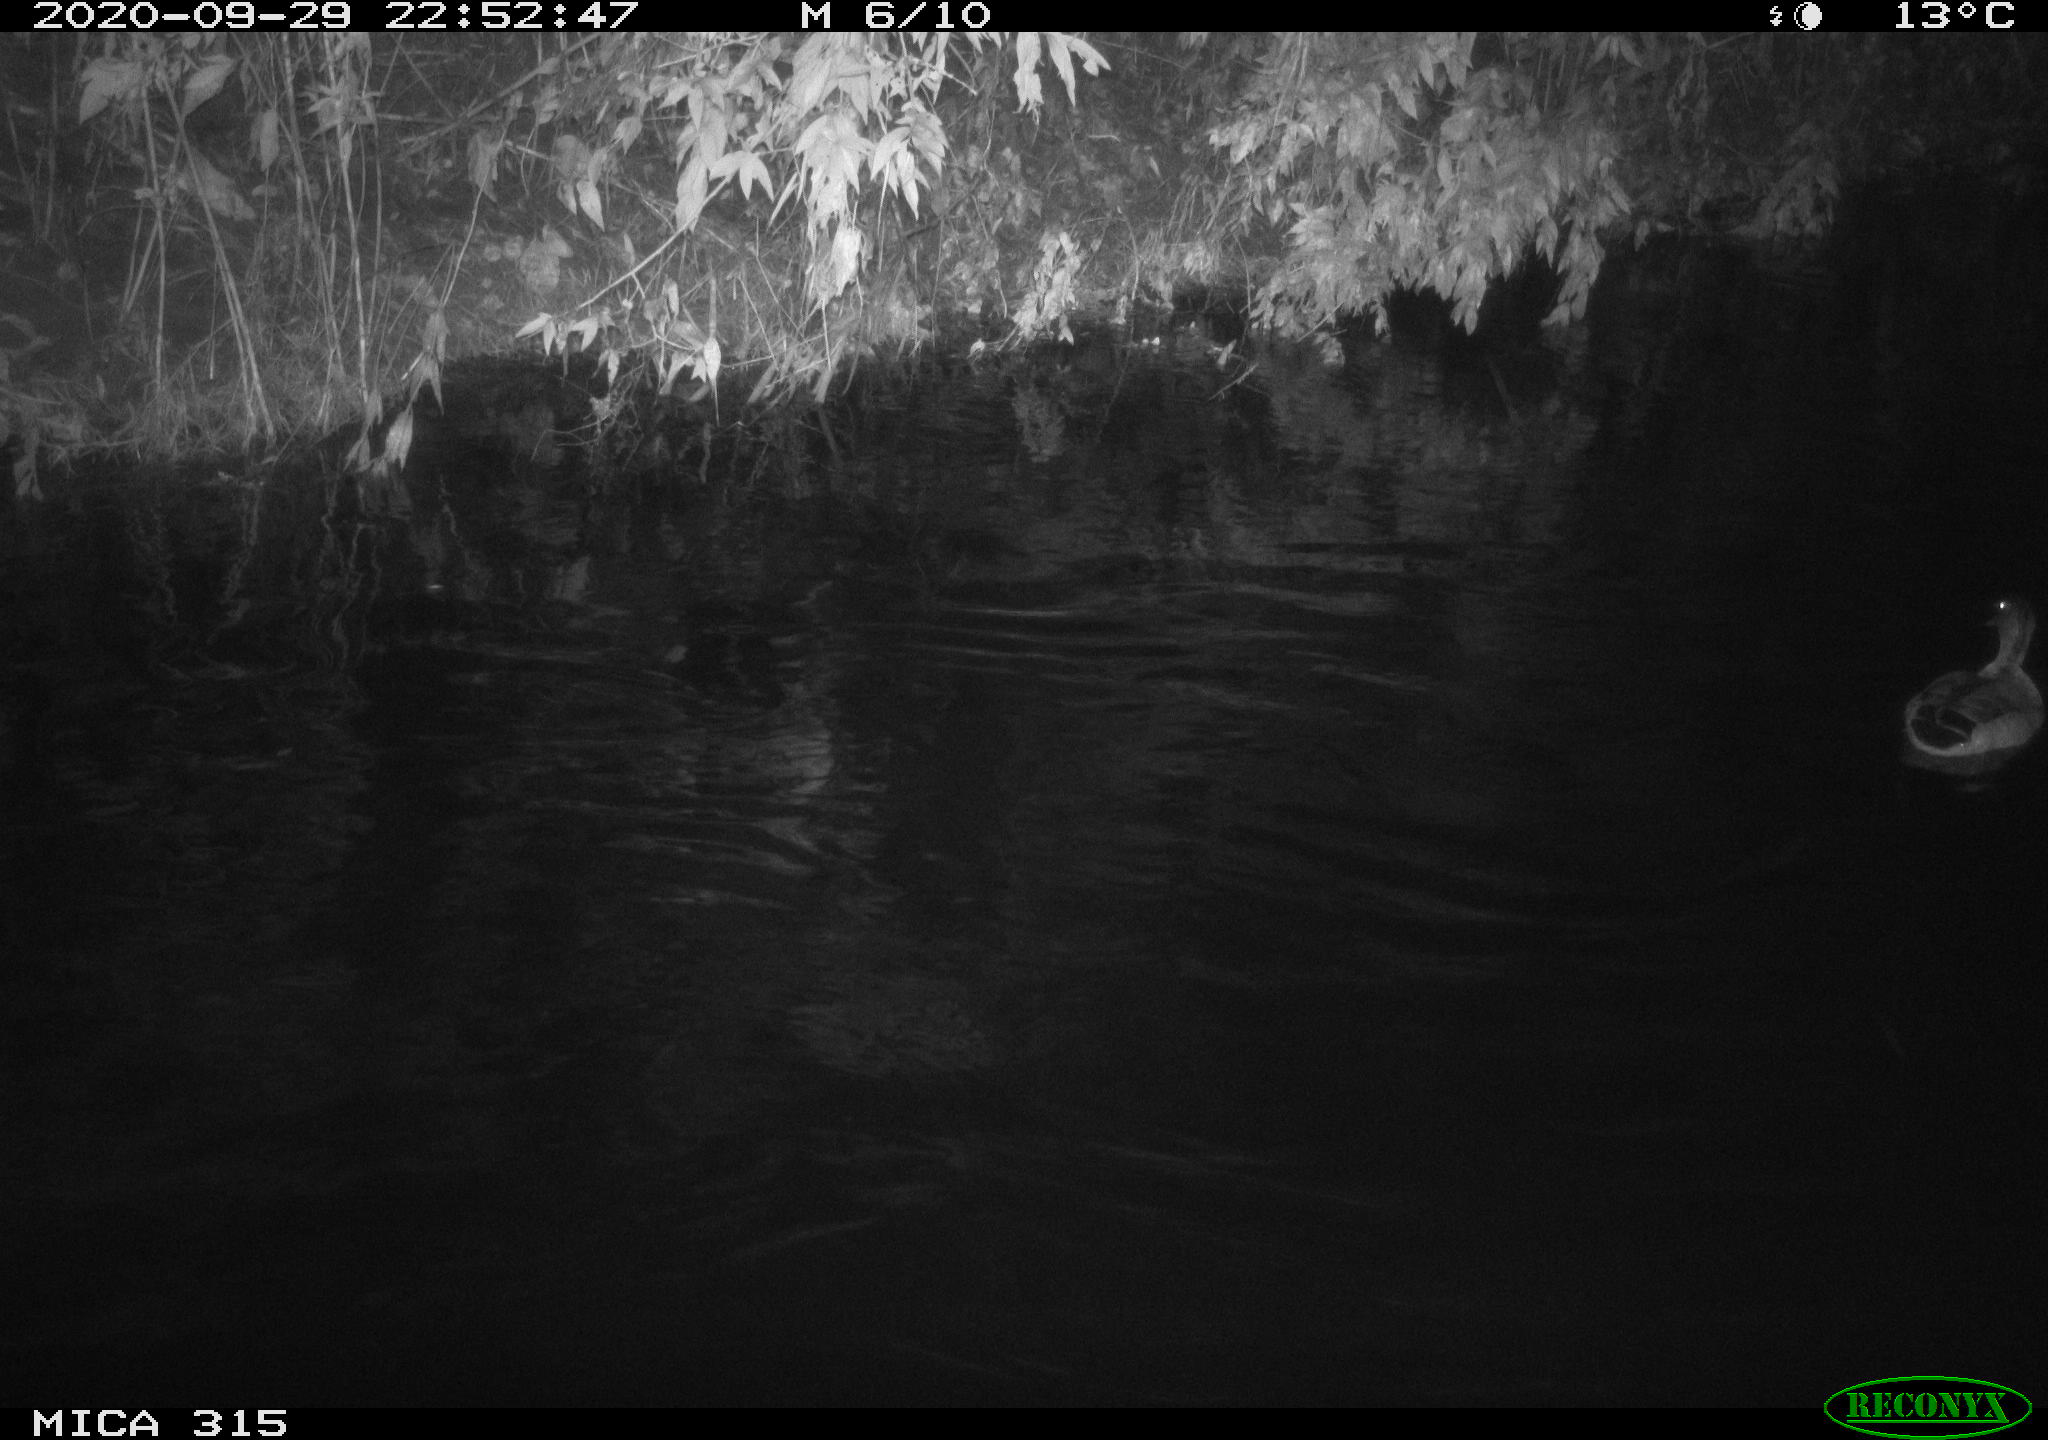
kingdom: Animalia
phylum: Chordata
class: Aves
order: Anseriformes
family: Anatidae
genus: Anas
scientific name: Anas platyrhynchos
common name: Mallard
